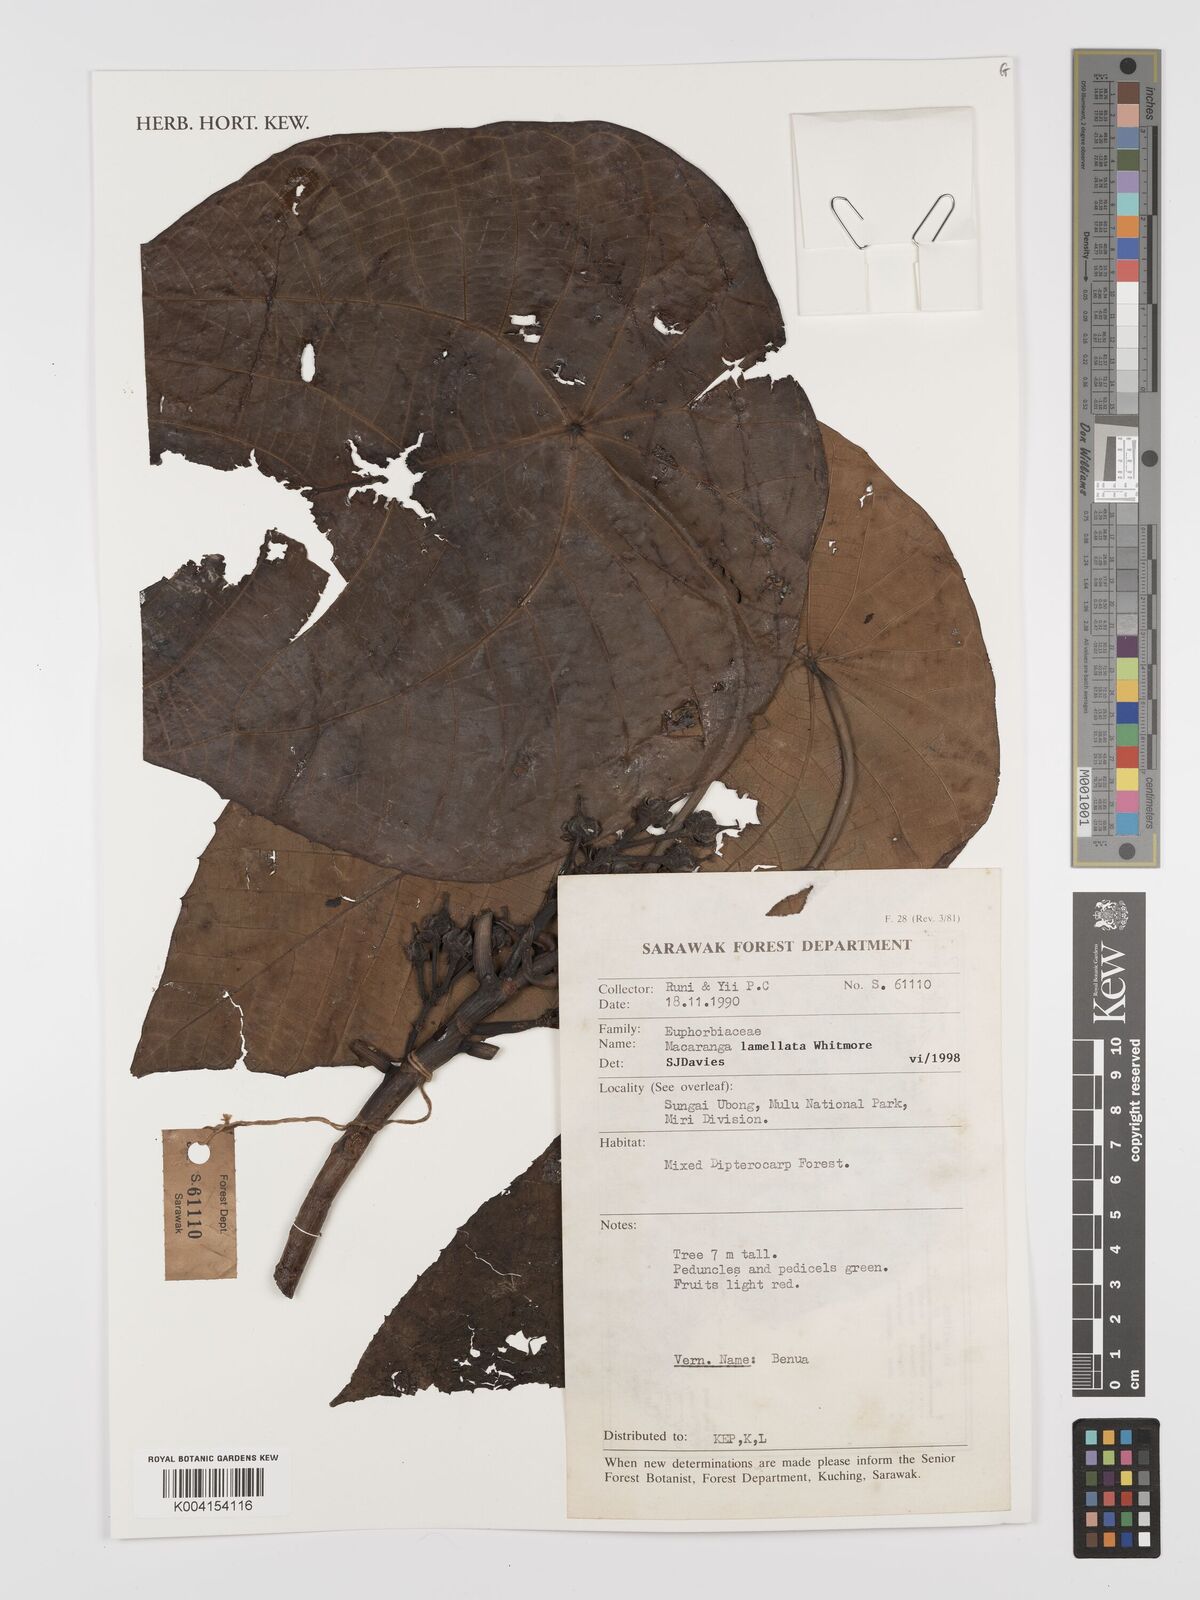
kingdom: Plantae
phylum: Tracheophyta
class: Magnoliopsida
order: Malpighiales
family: Euphorbiaceae
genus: Macaranga
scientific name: Macaranga lamellata
